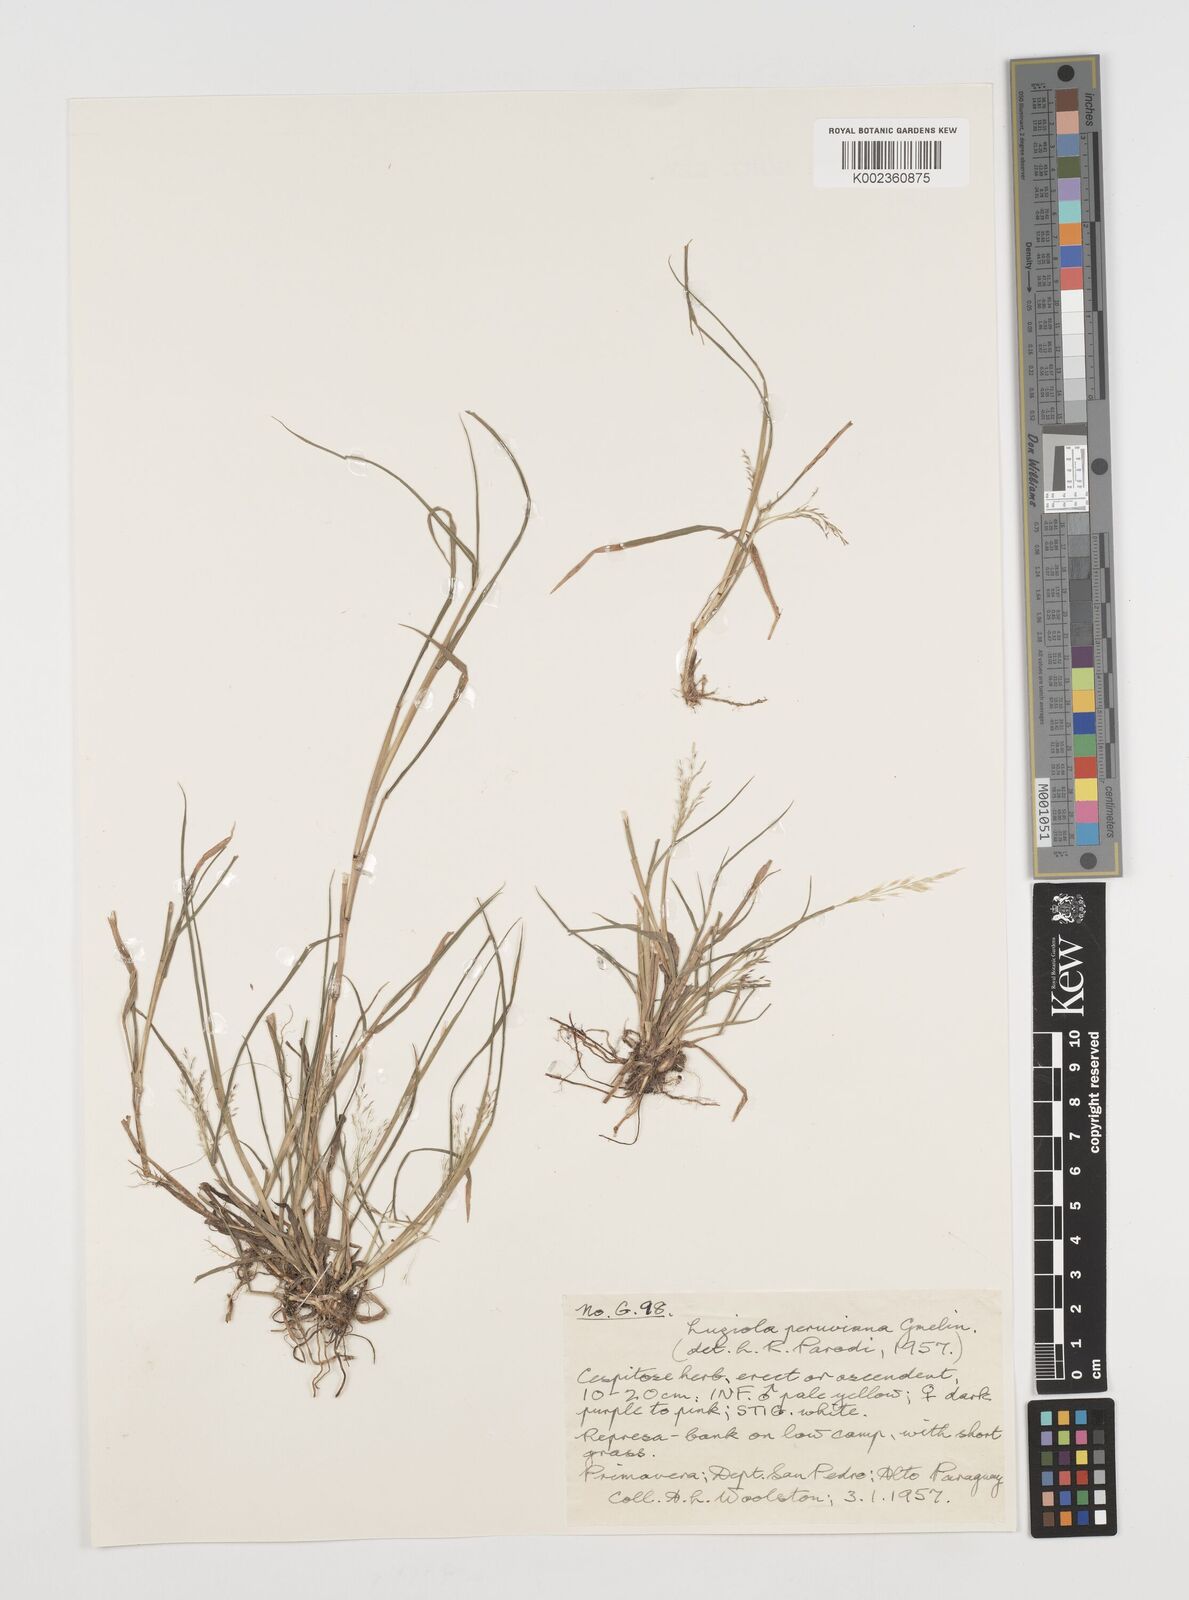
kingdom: Plantae
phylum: Tracheophyta
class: Liliopsida
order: Poales
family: Poaceae
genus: Luziola
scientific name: Luziola peruviana
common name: Peruvian watergrass
